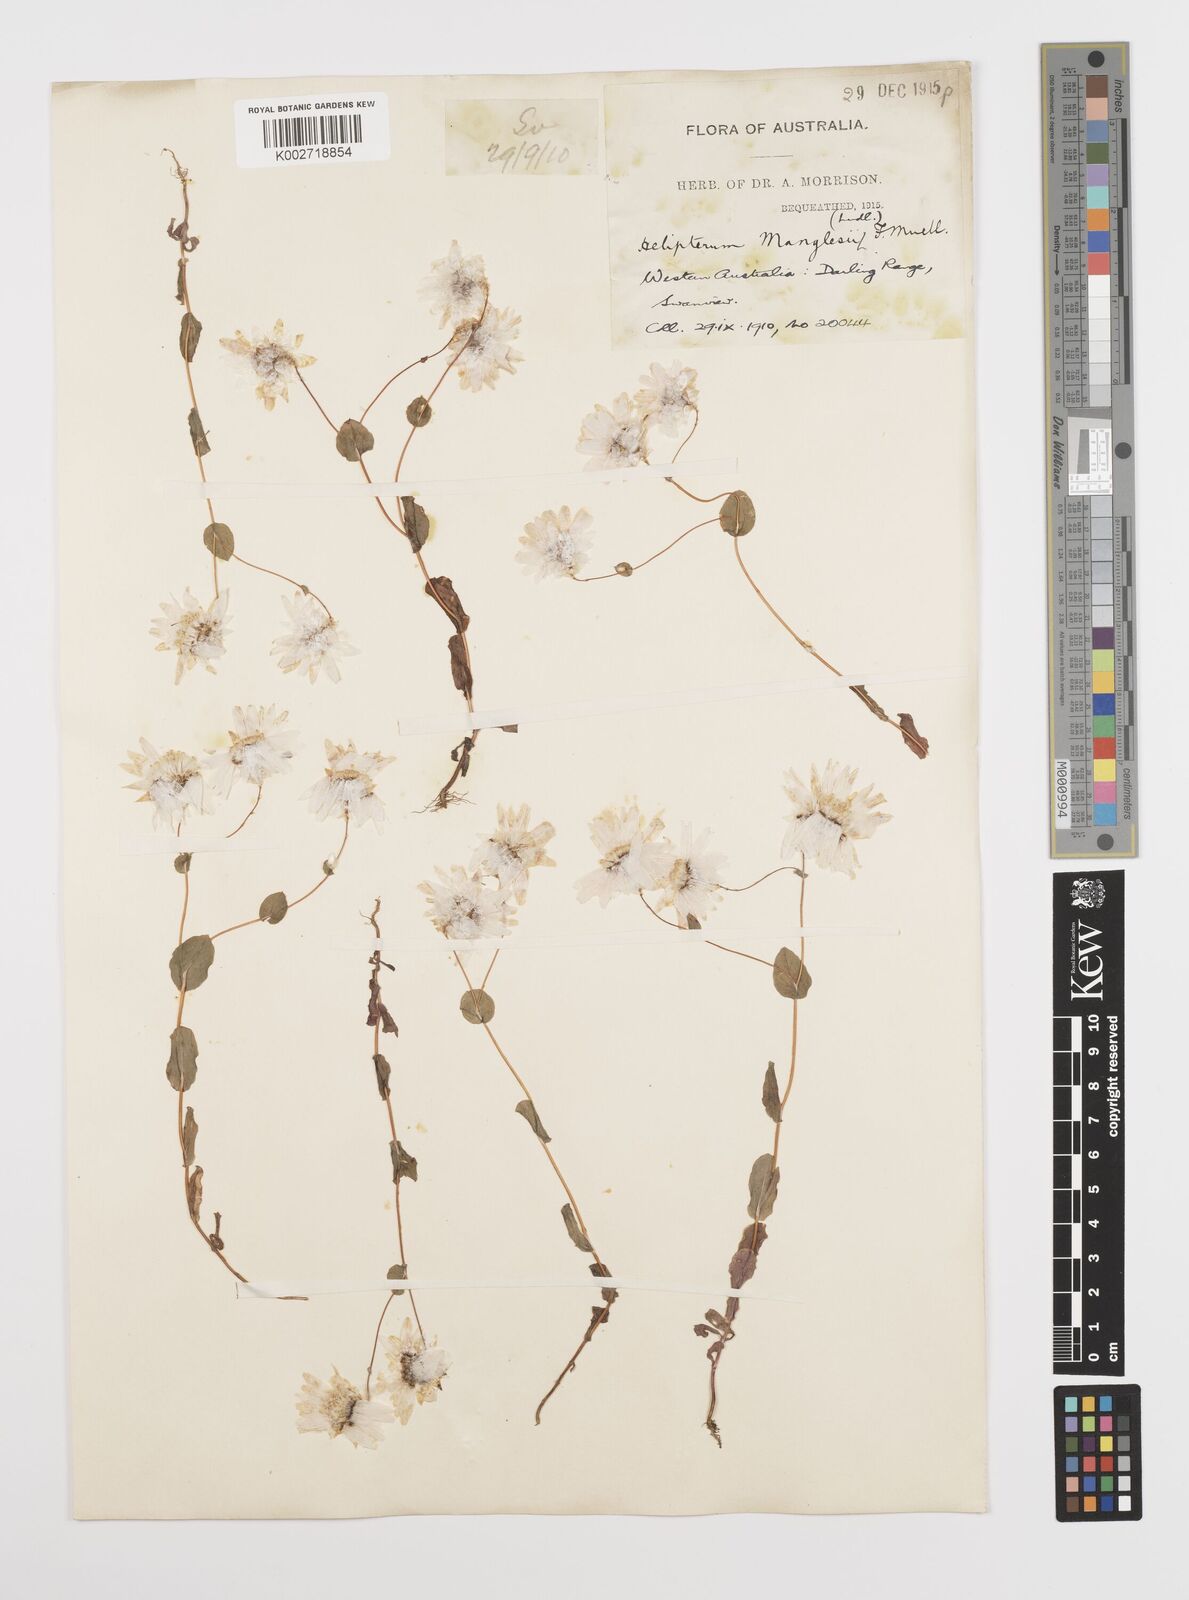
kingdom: Plantae
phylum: Tracheophyta
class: Magnoliopsida
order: Asterales
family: Asteraceae
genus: Rhodanthe
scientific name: Rhodanthe manglesii
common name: Pink sunray
